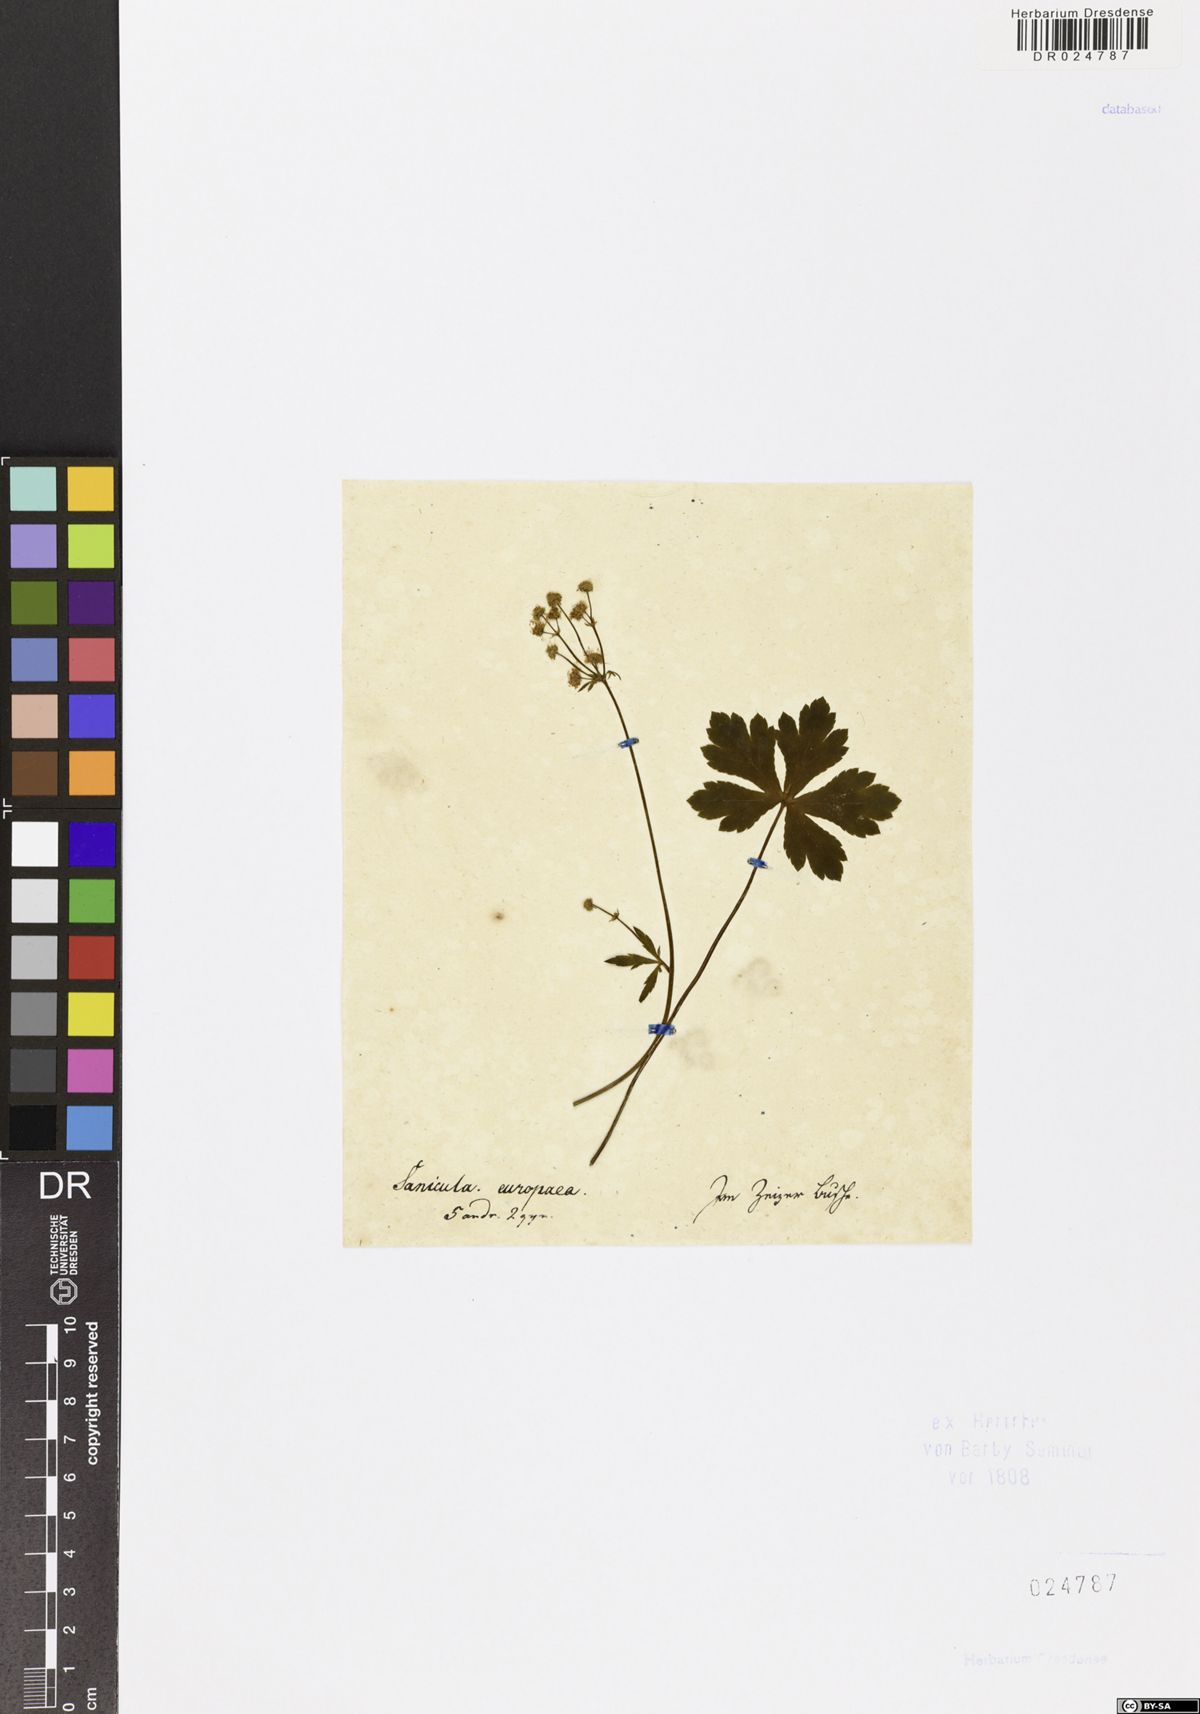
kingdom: Plantae
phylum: Tracheophyta
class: Magnoliopsida
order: Apiales
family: Apiaceae
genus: Sanicula
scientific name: Sanicula europaea
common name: Sanicle
